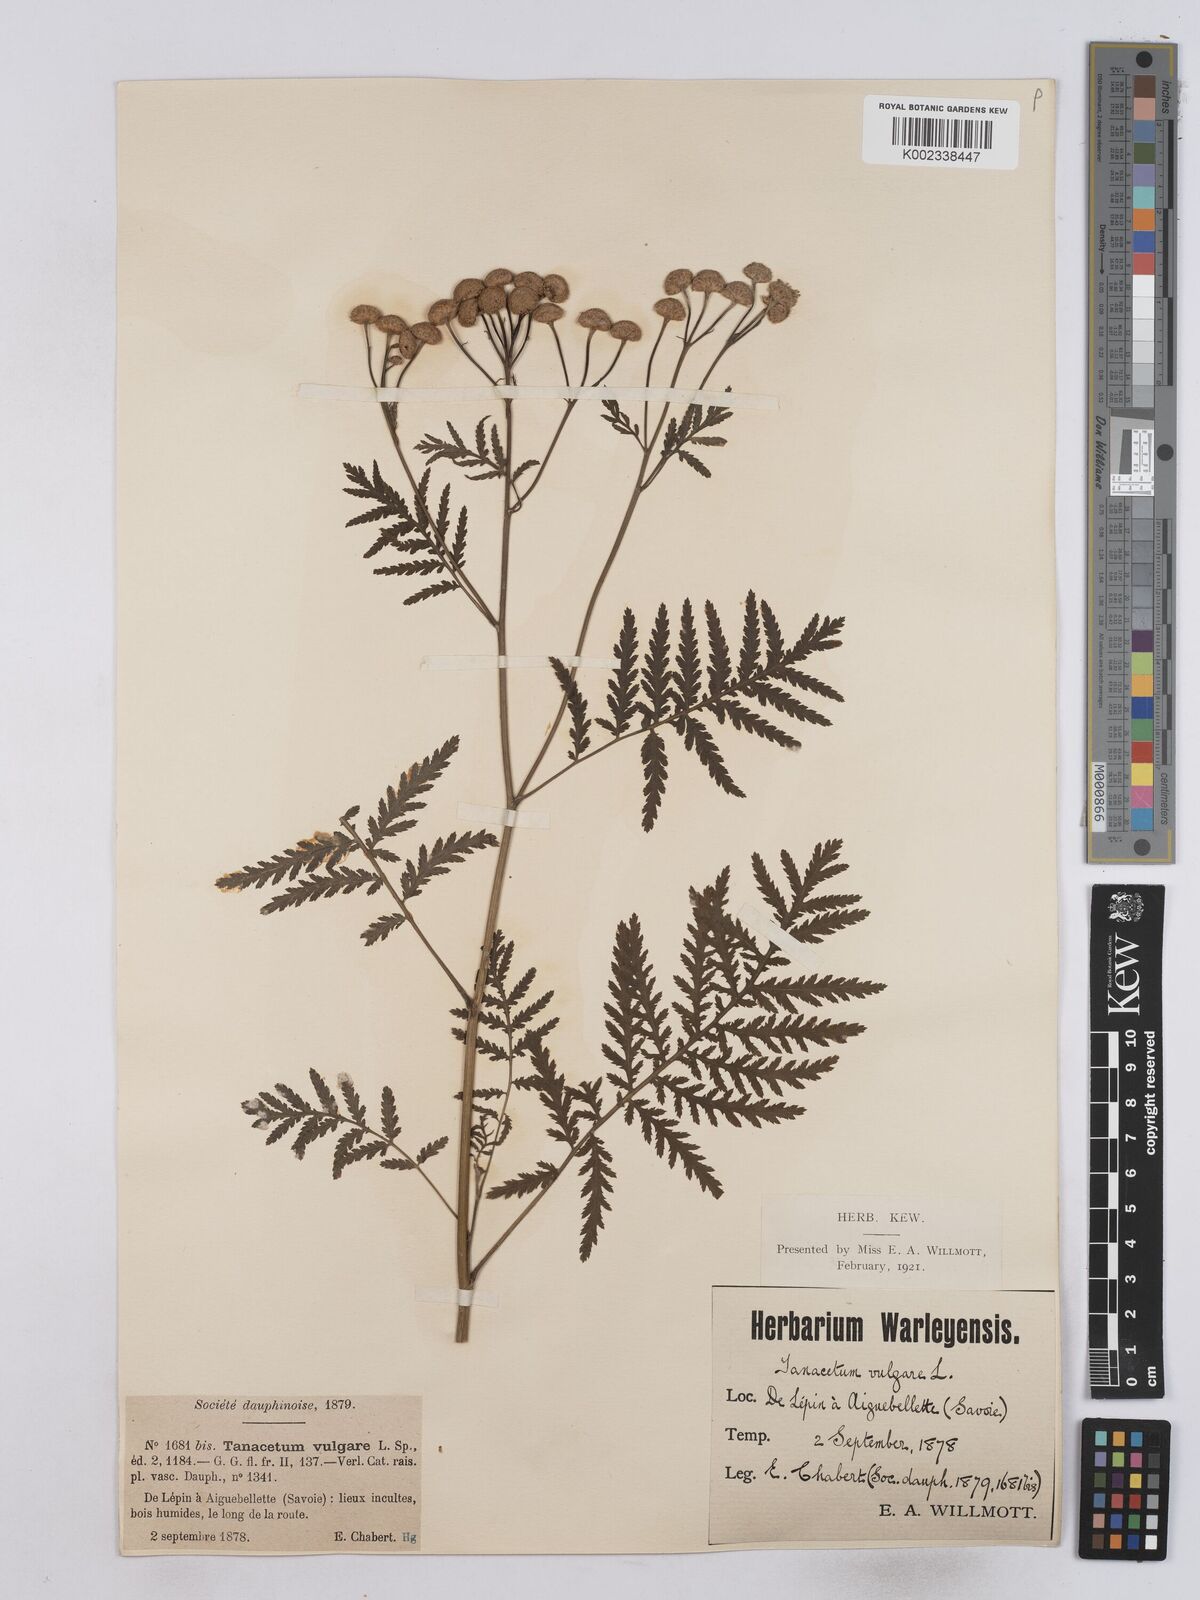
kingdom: Plantae
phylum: Tracheophyta
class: Magnoliopsida
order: Asterales
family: Asteraceae
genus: Tanacetum
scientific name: Tanacetum vulgare
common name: Common tansy
